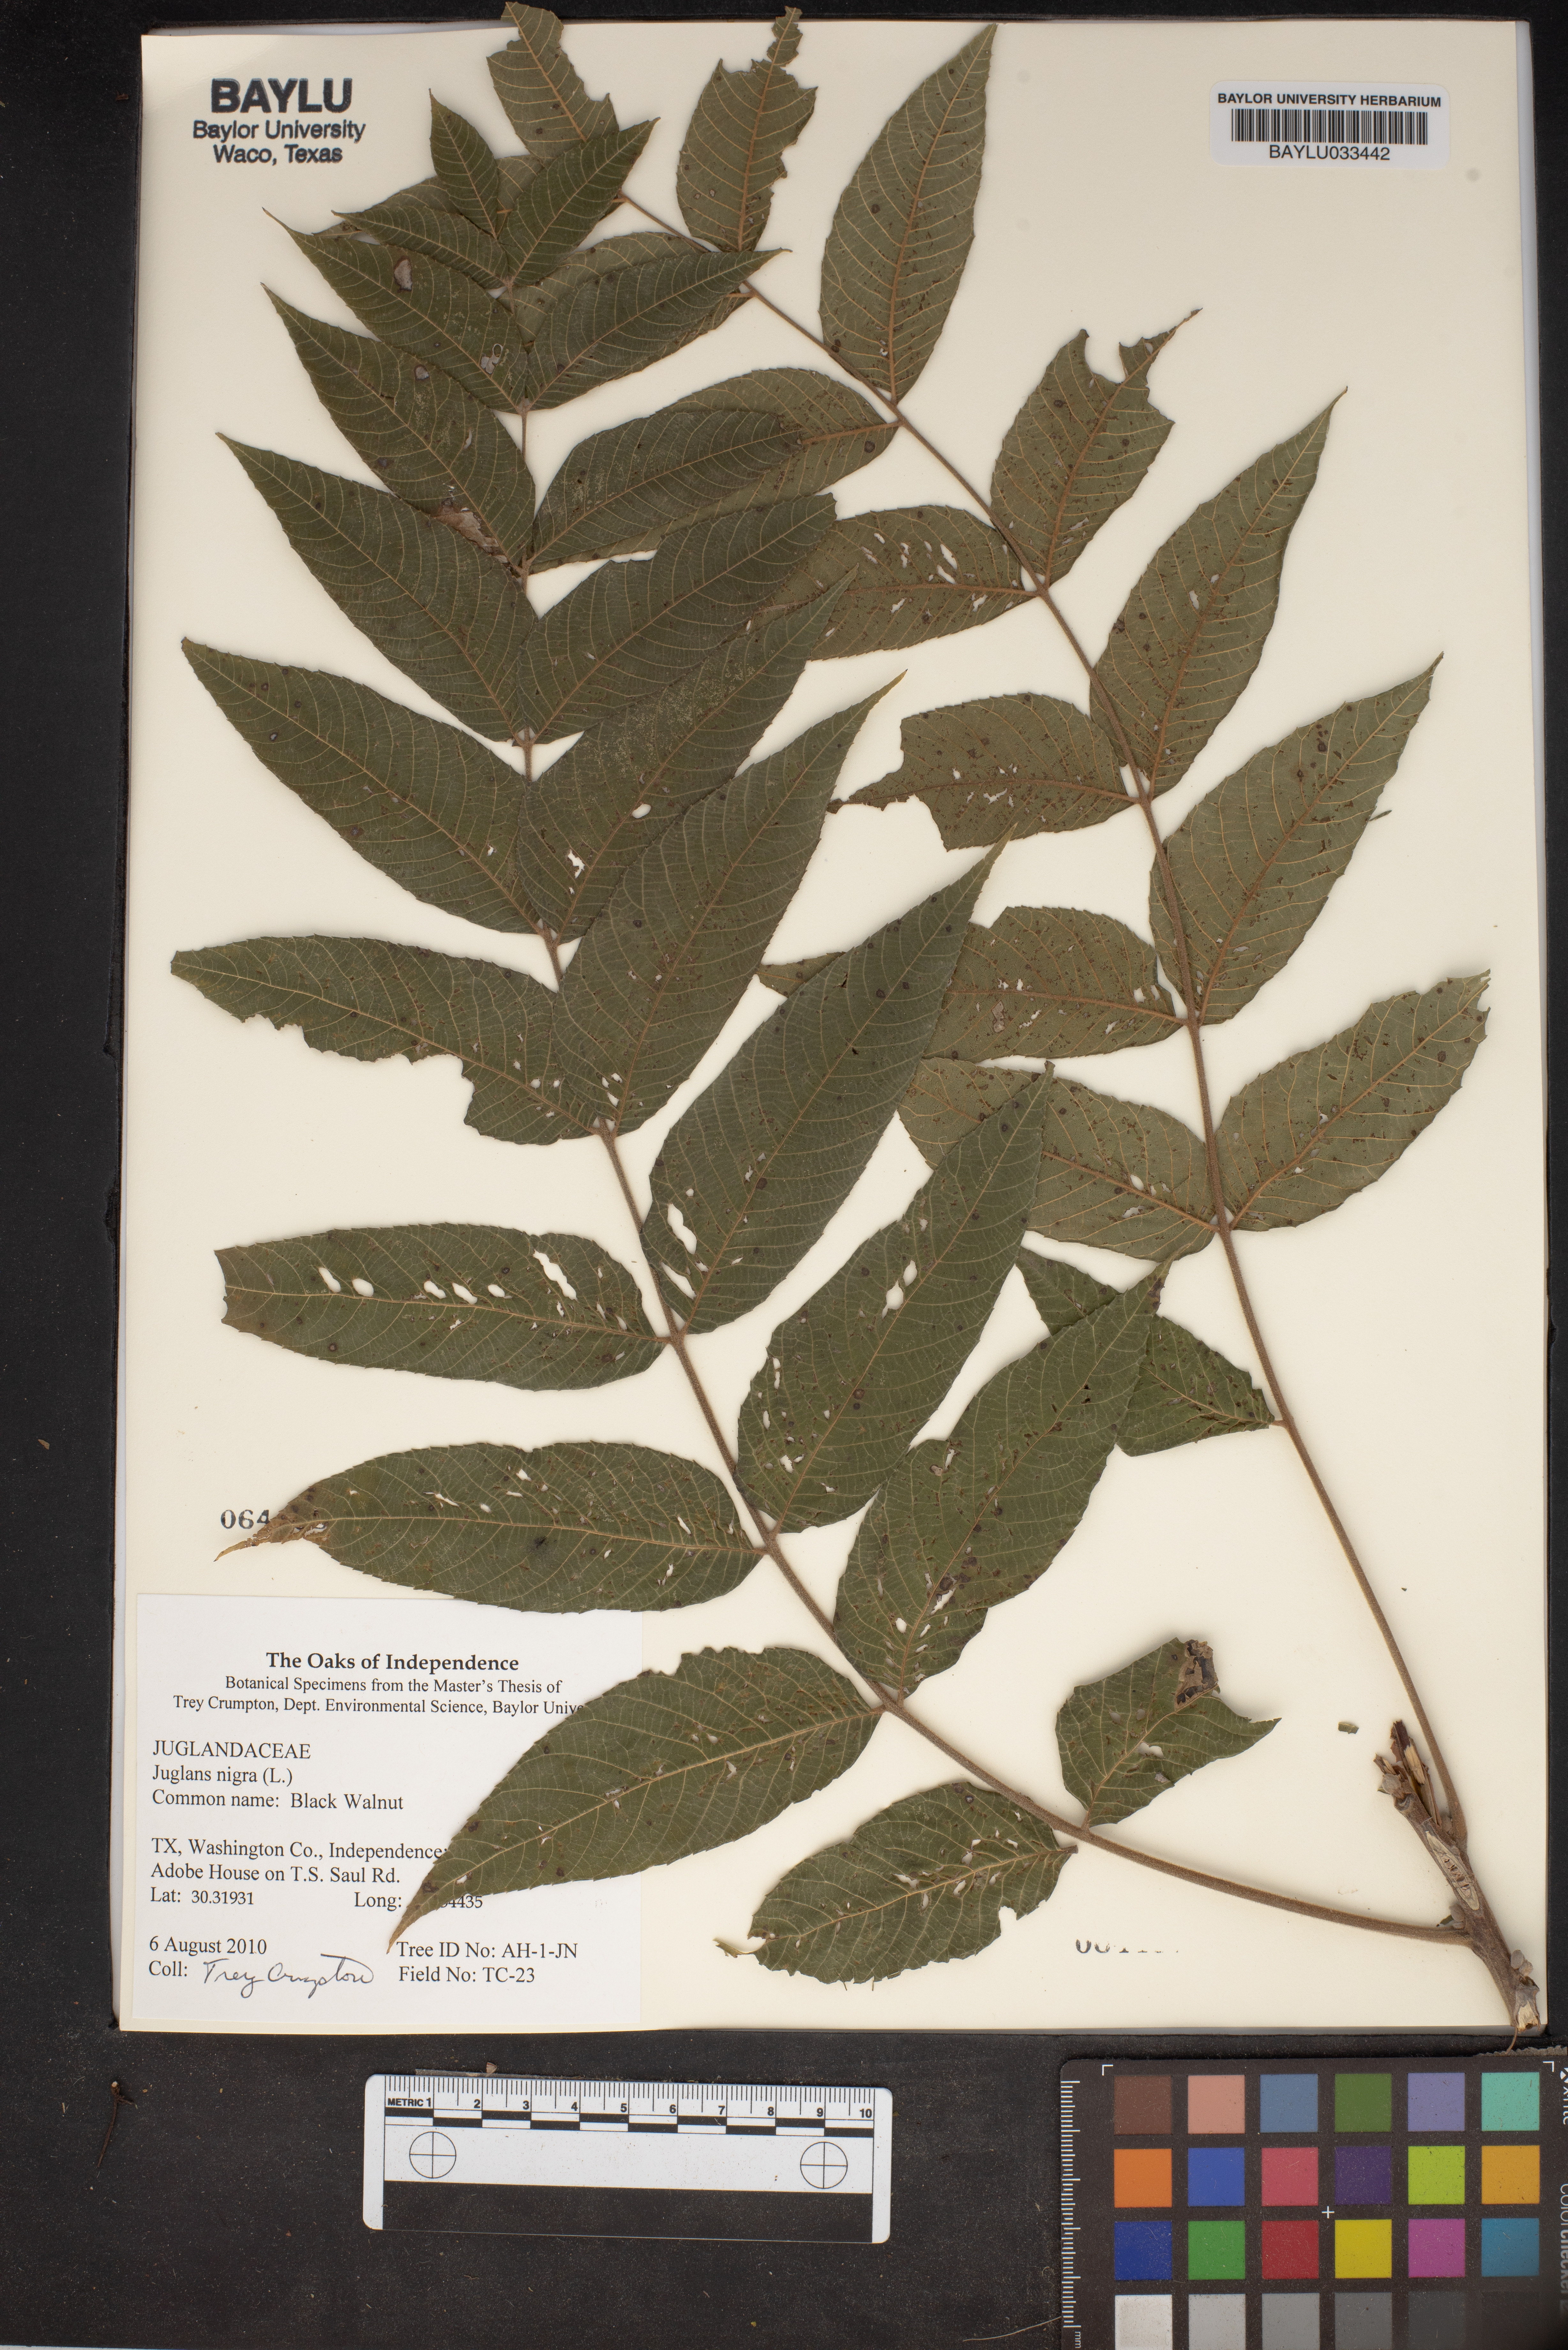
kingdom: Plantae
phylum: Tracheophyta
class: Magnoliopsida
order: Fagales
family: Juglandaceae
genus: Juglans
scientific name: Juglans nigra
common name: Black walnut
